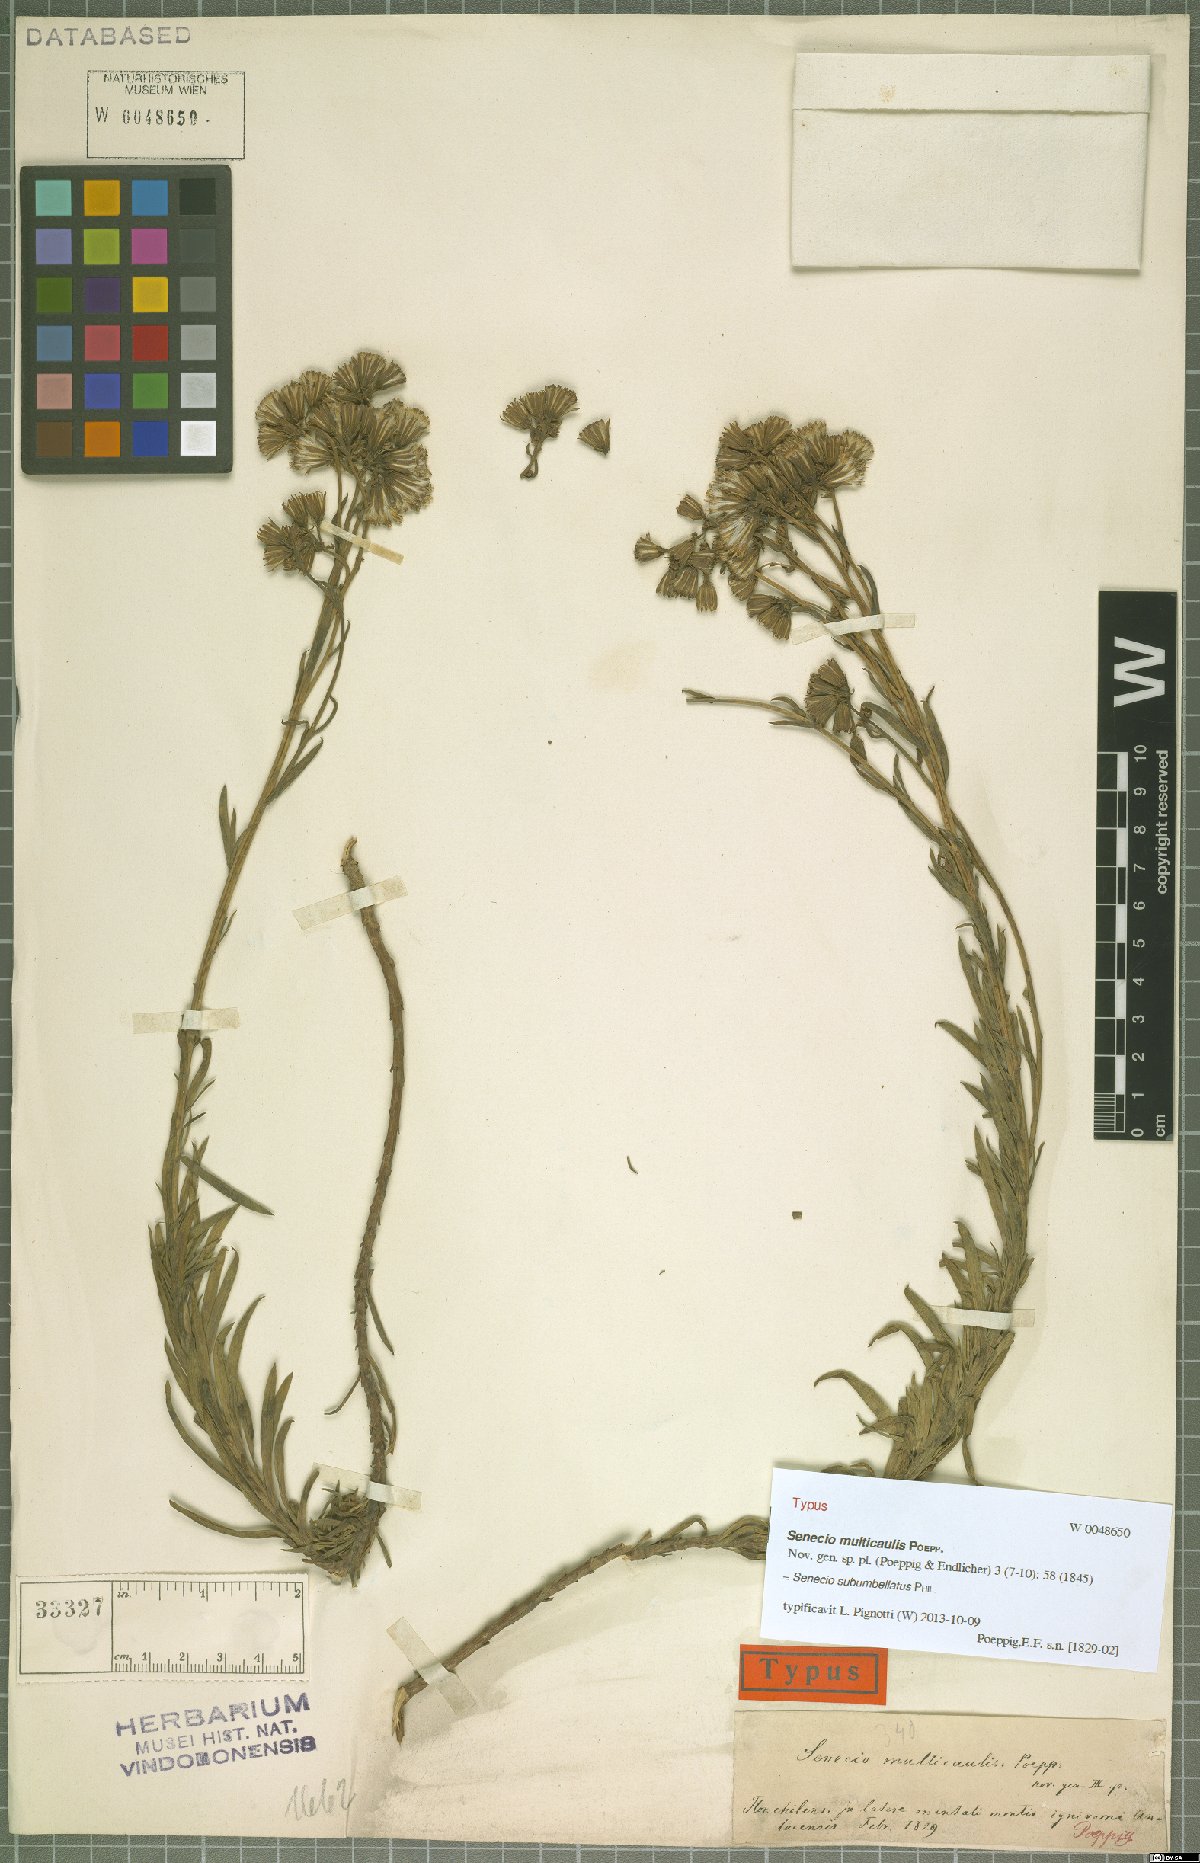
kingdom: Plantae
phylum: Tracheophyta
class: Magnoliopsida
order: Asterales
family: Asteraceae
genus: Senecio
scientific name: Senecio subumbellatus
